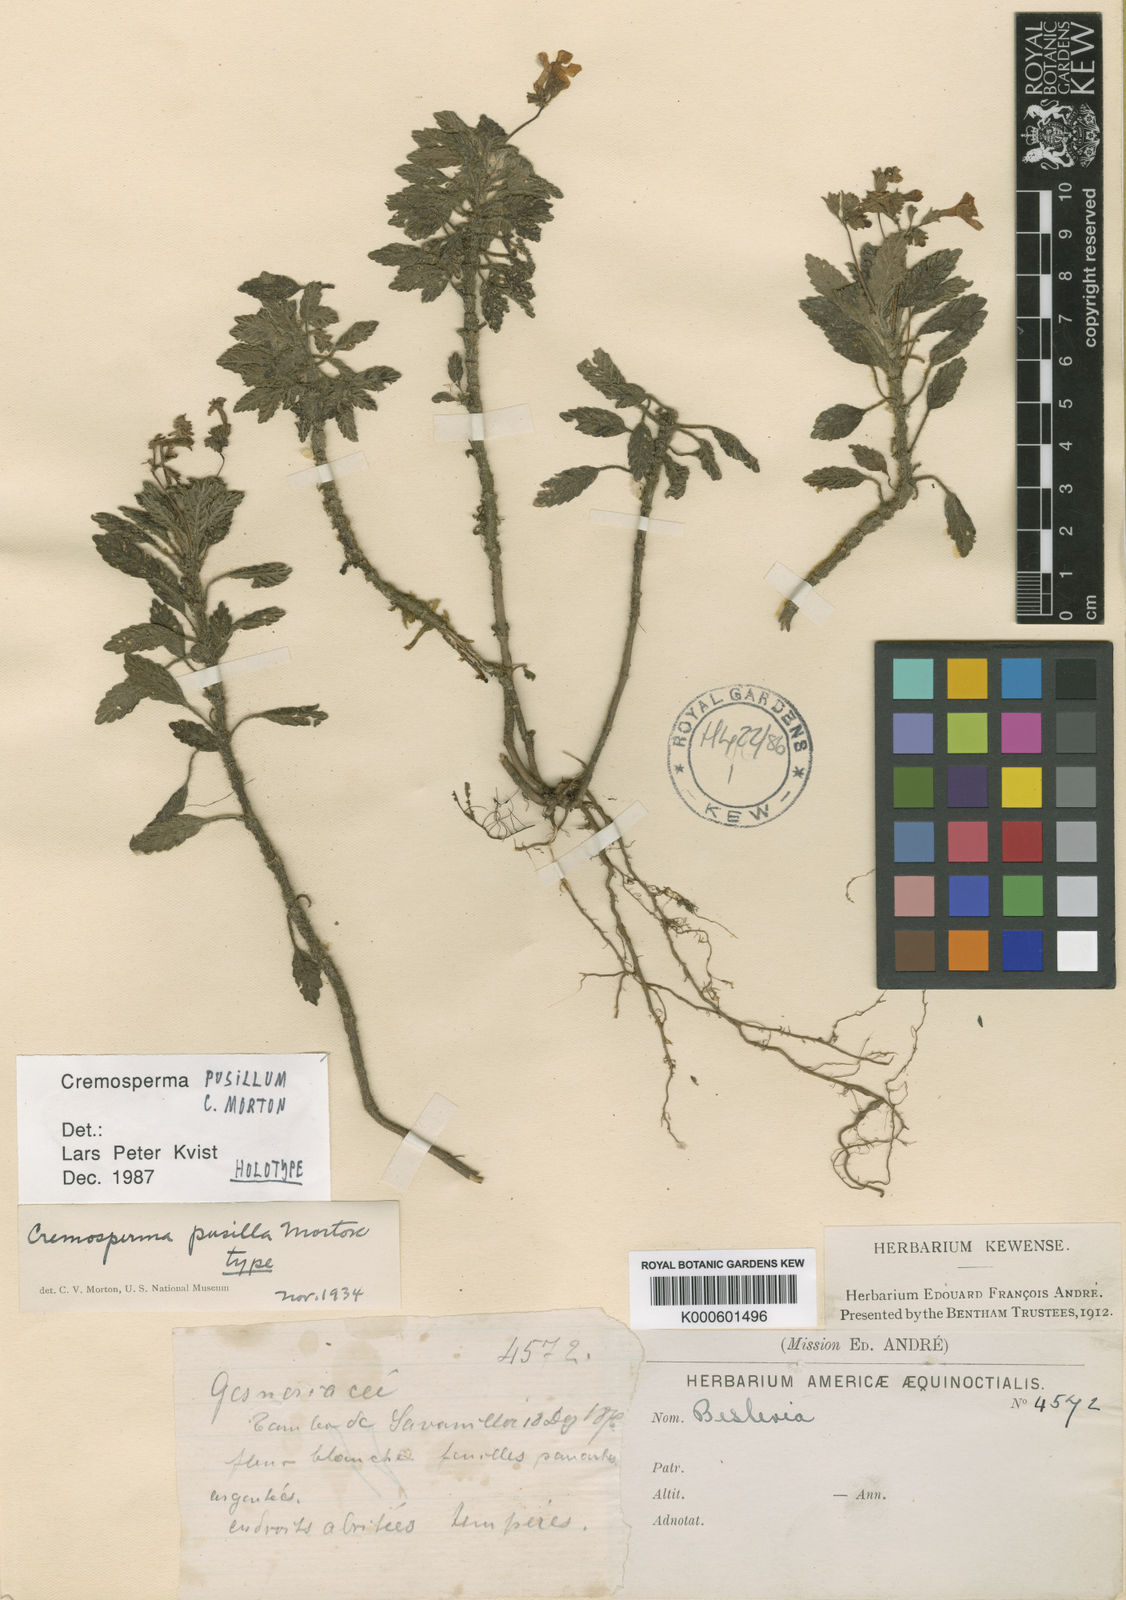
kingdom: Plantae
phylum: Tracheophyta
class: Magnoliopsida
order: Lamiales
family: Gesneriaceae
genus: Cremosperma
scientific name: Cremosperma pusillum
